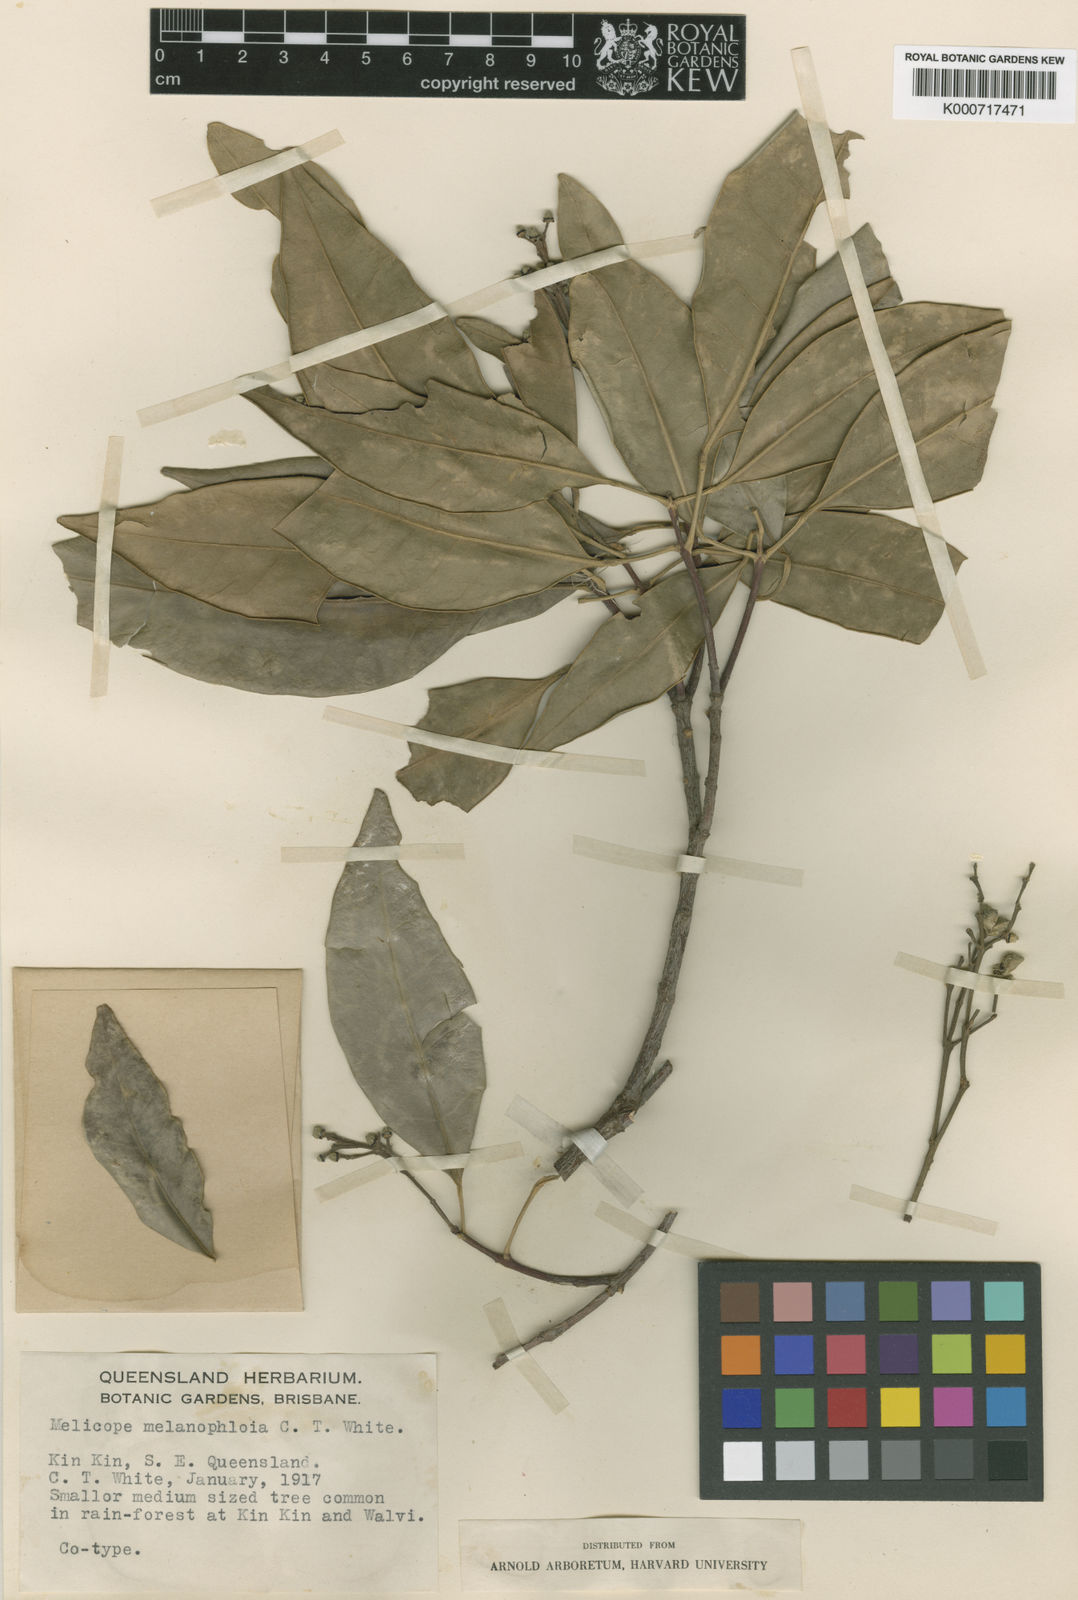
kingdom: Plantae
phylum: Tracheophyta
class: Magnoliopsida
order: Sapindales
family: Rutaceae
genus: Dinosperma
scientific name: Dinosperma melanophloia
